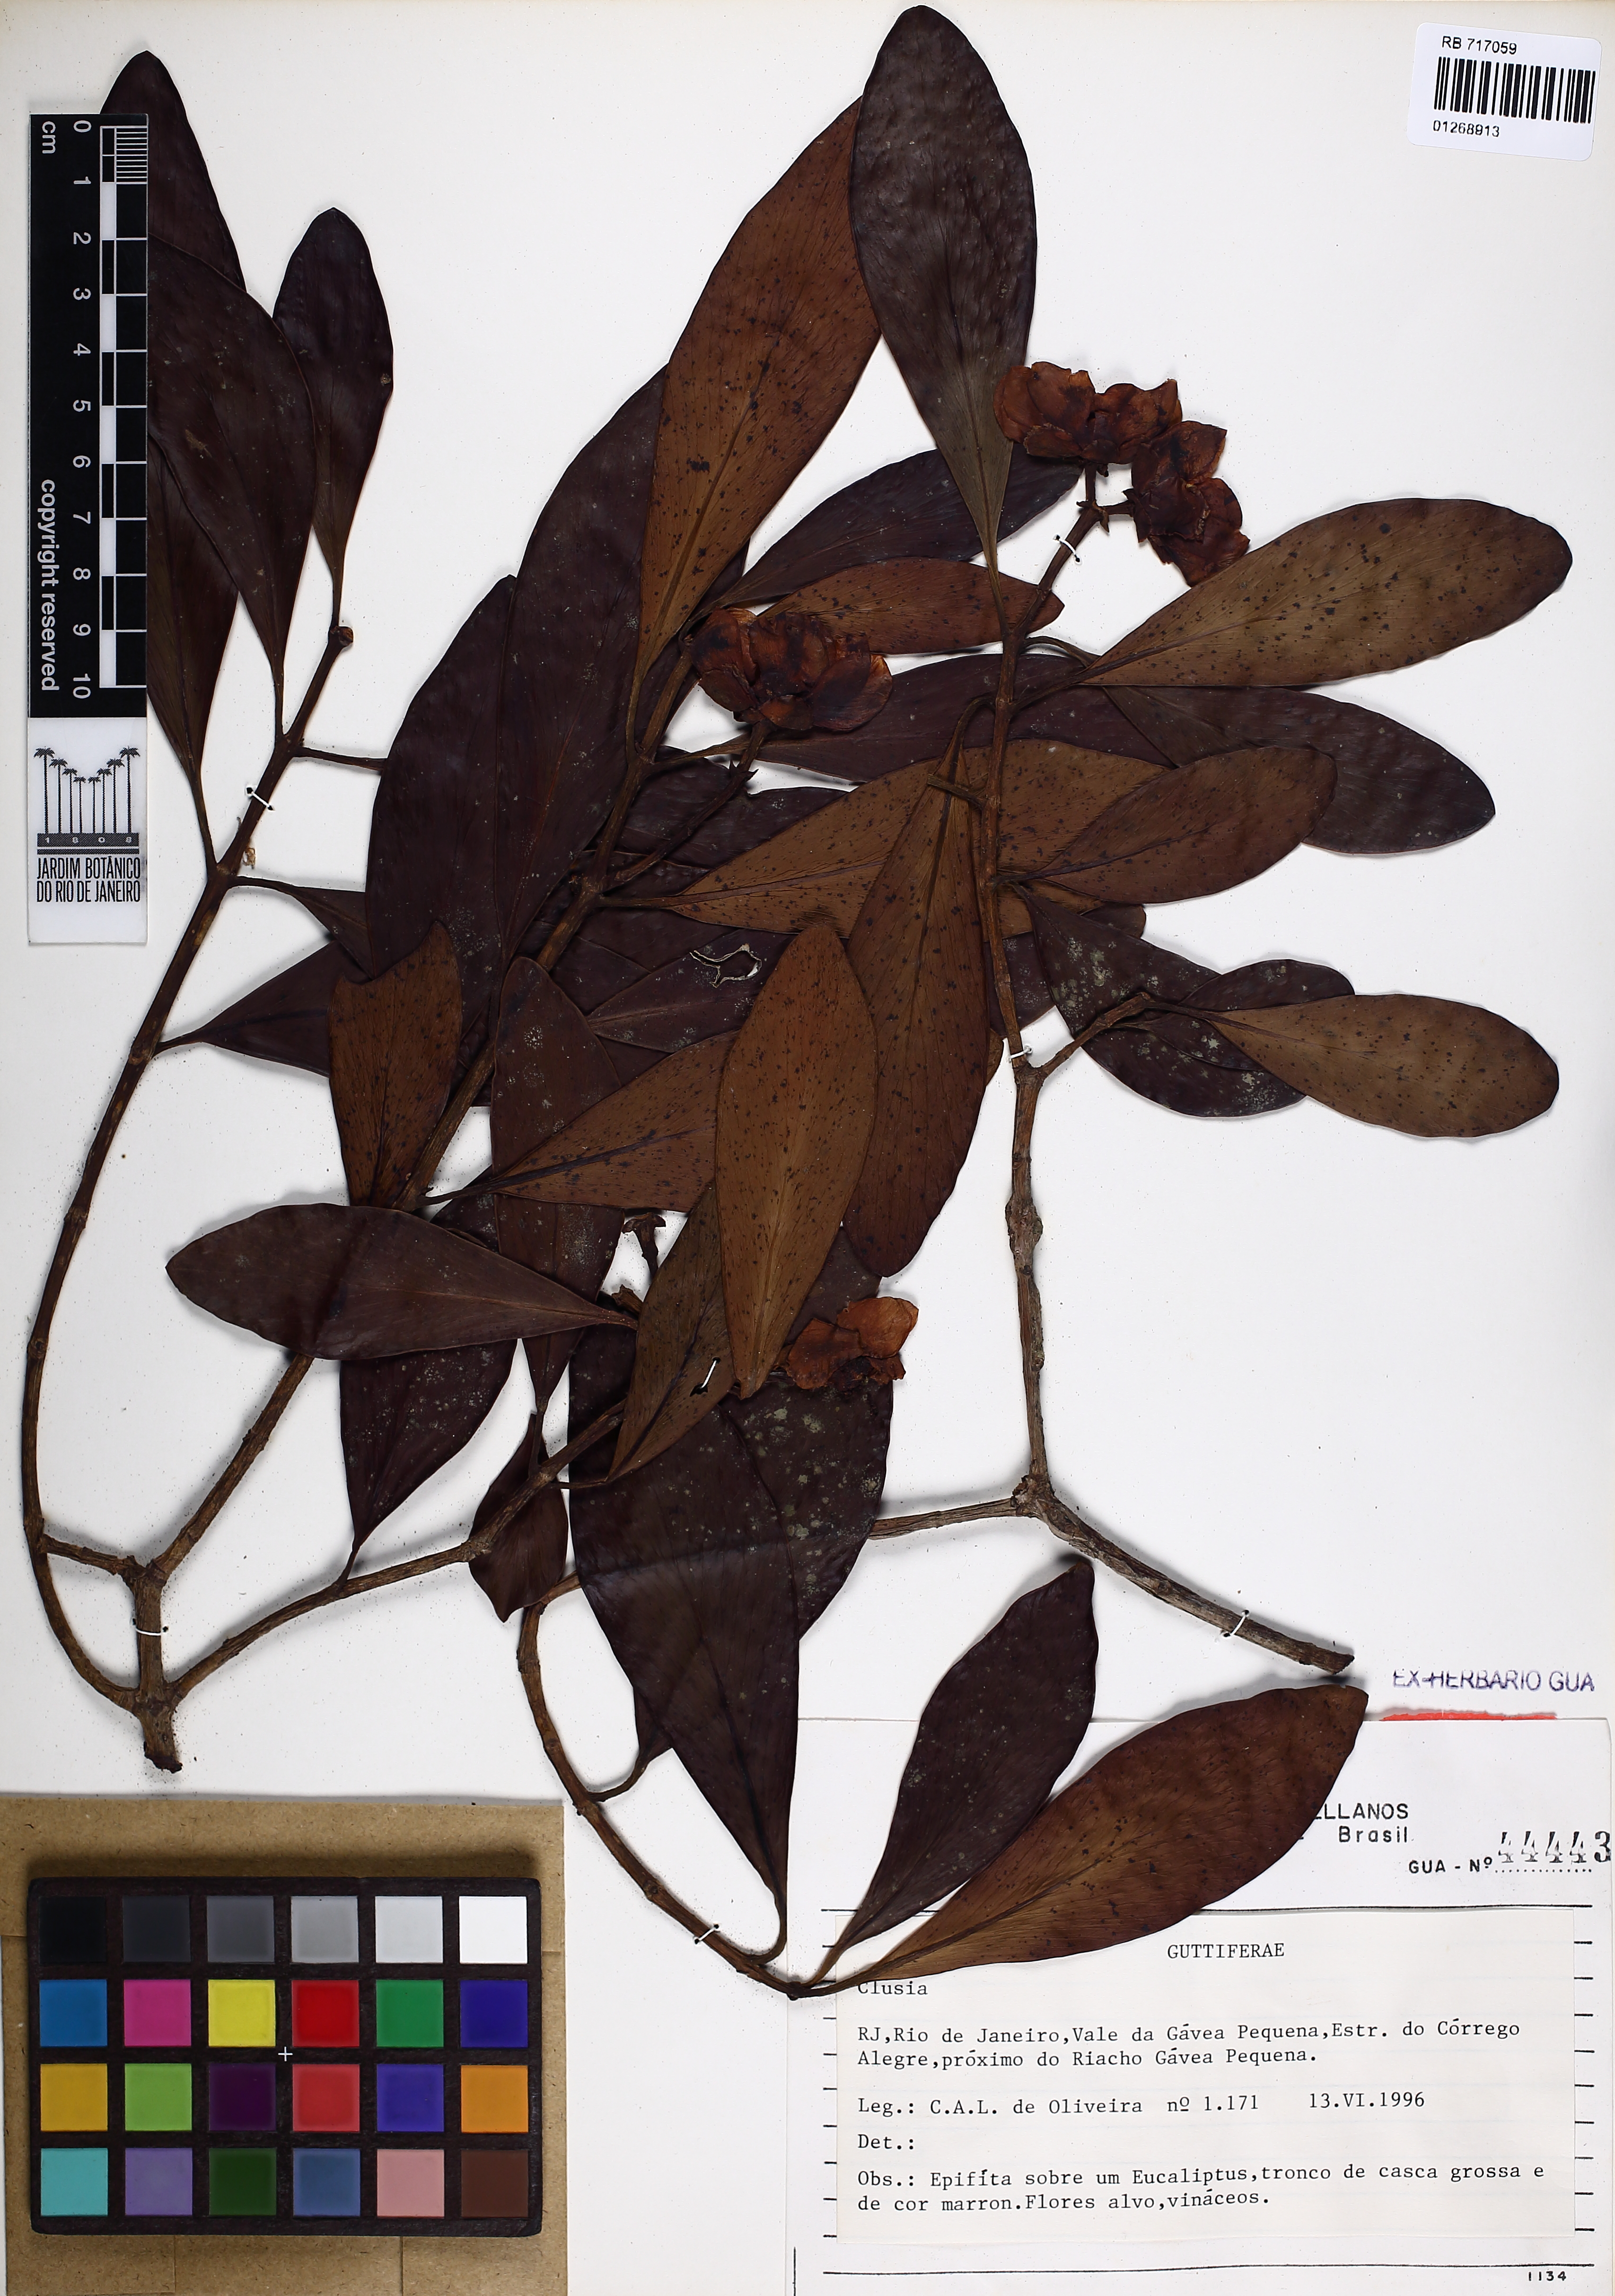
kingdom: Plantae
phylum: Tracheophyta
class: Magnoliopsida
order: Malpighiales
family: Clusiaceae
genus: Clusia
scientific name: Clusia
